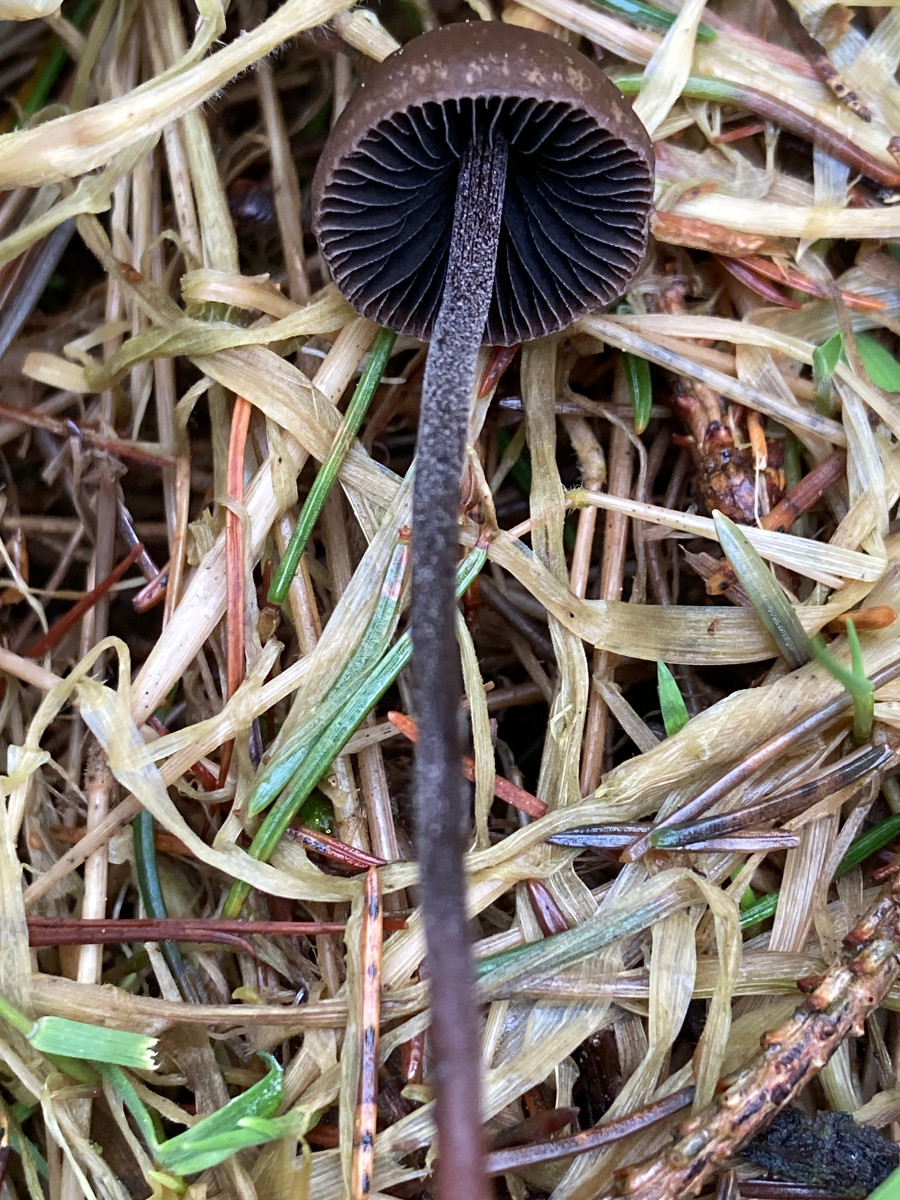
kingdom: Fungi
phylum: Basidiomycota
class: Agaricomycetes
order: Agaricales
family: Bolbitiaceae
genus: Panaeolus
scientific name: Panaeolus
